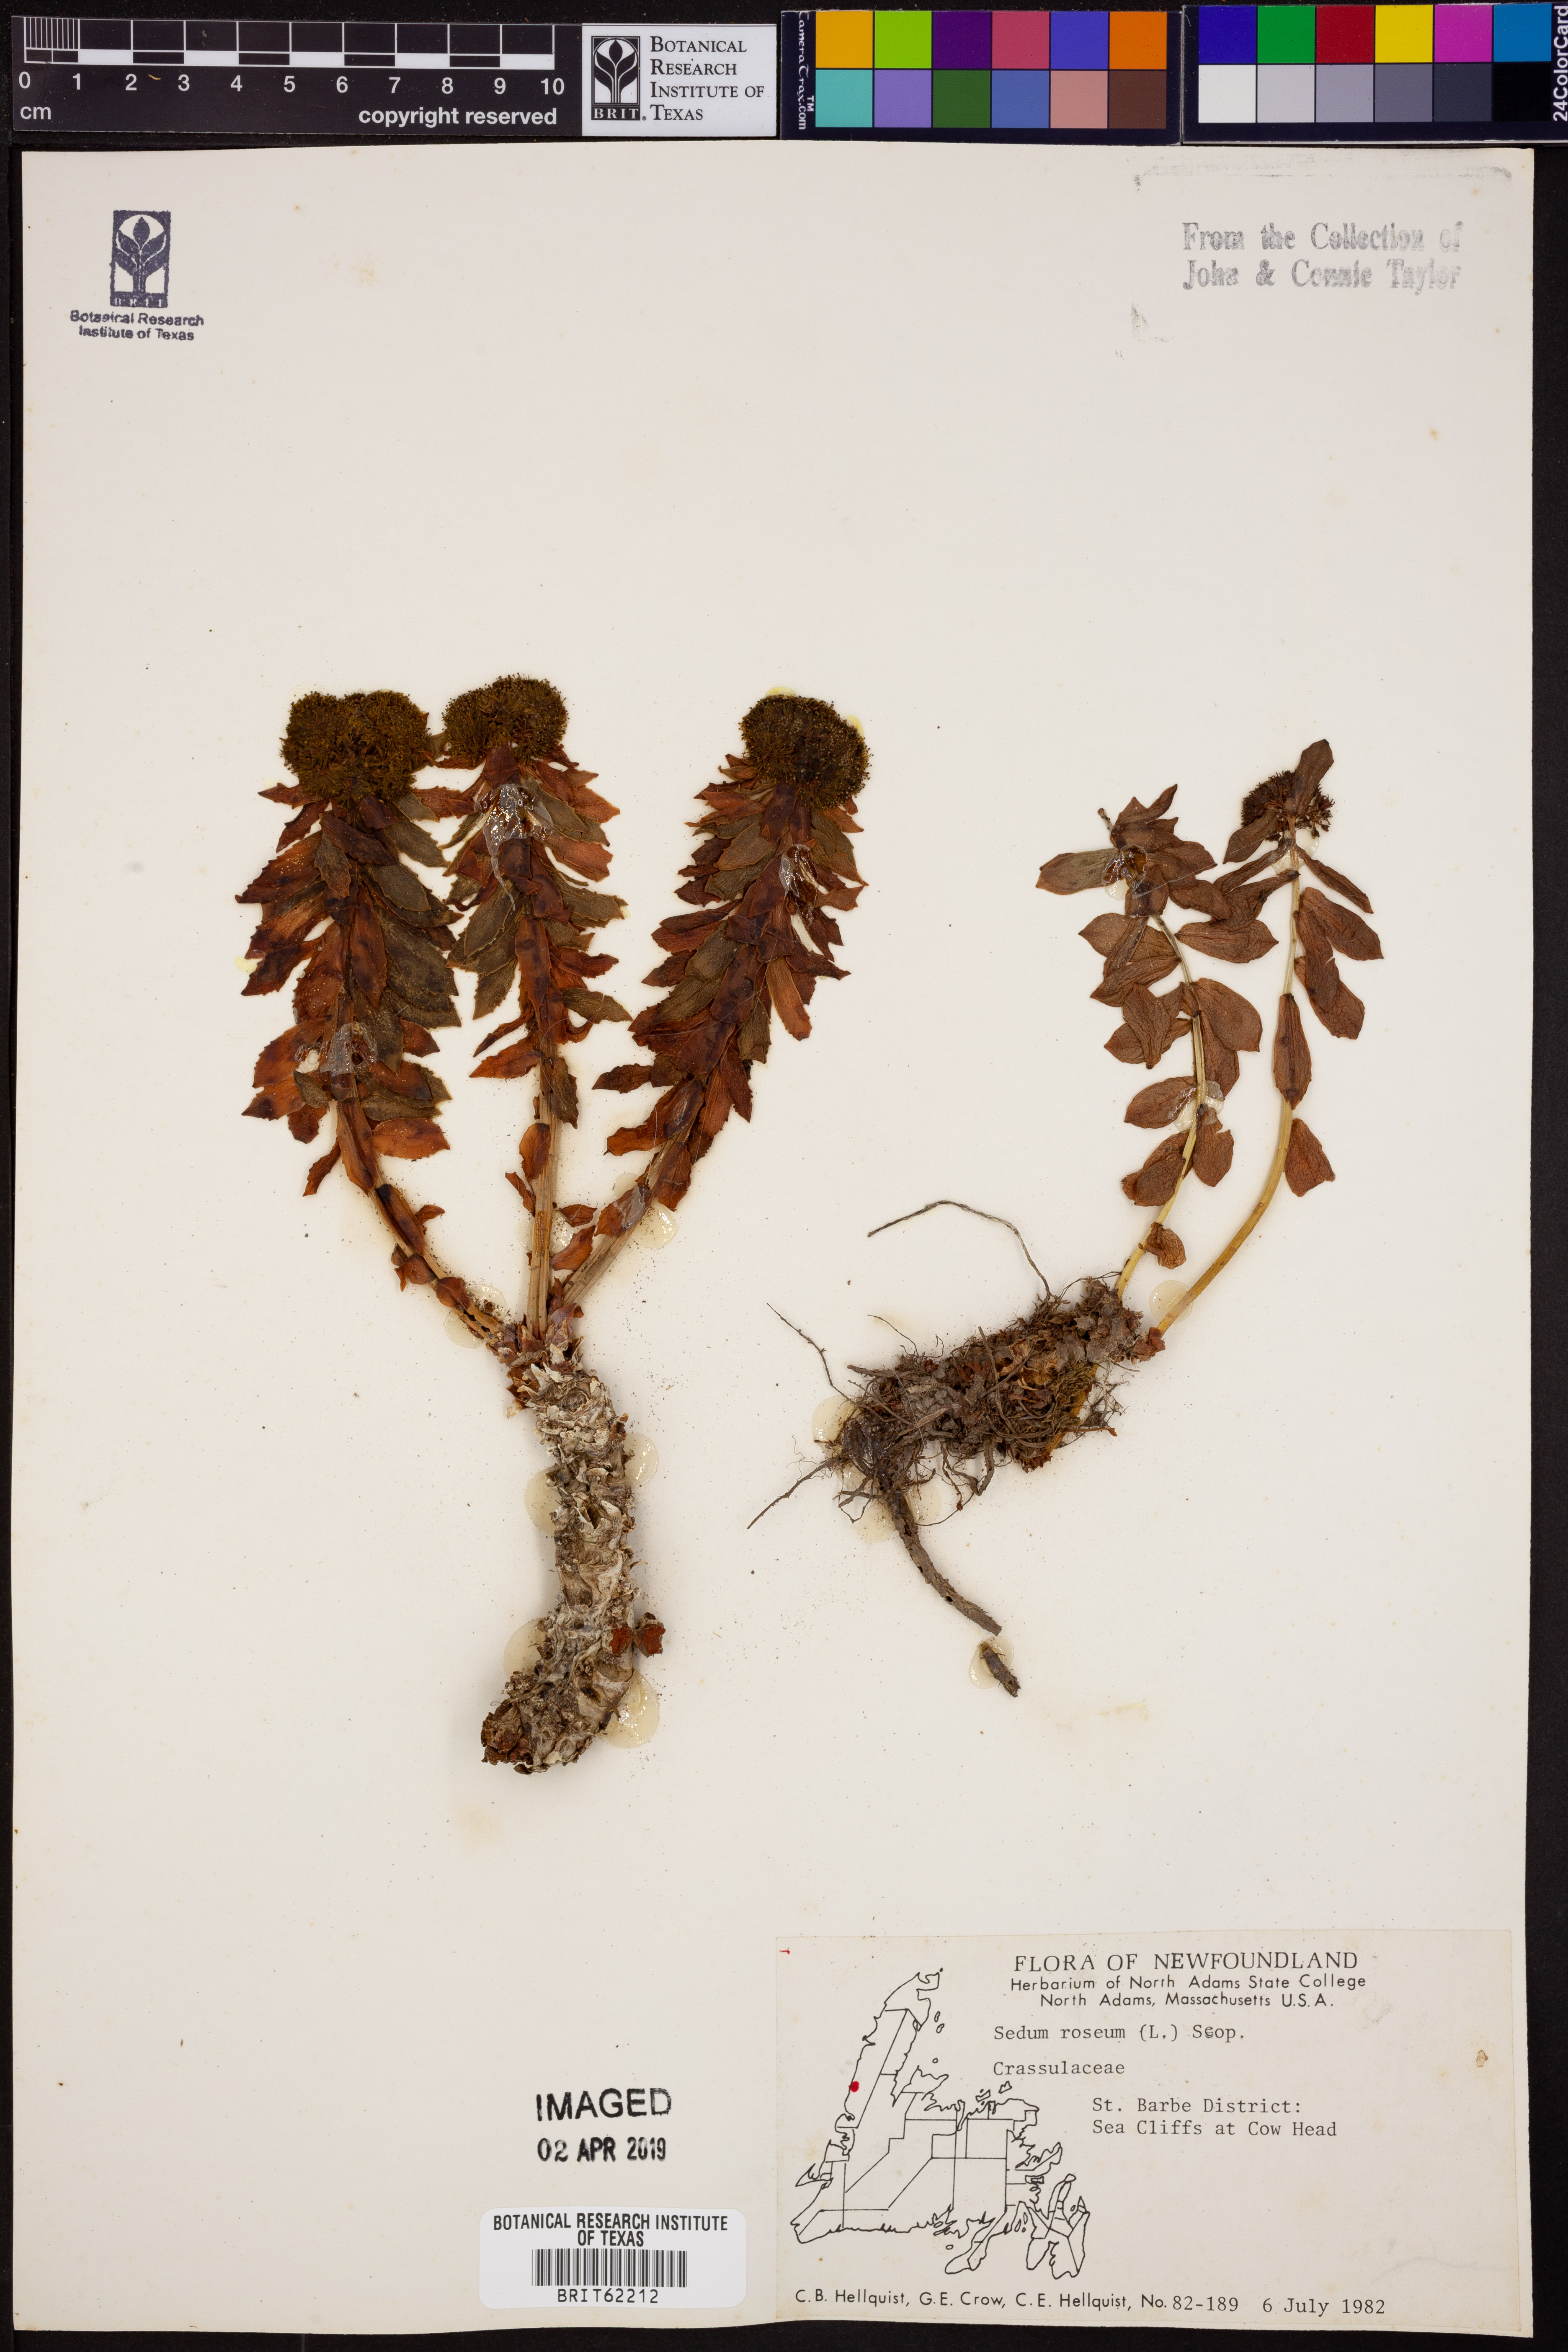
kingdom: Plantae
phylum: Tracheophyta
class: Magnoliopsida
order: Saxifragales
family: Crassulaceae
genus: Rhodiola
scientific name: Rhodiola rosea
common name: Roseroot
